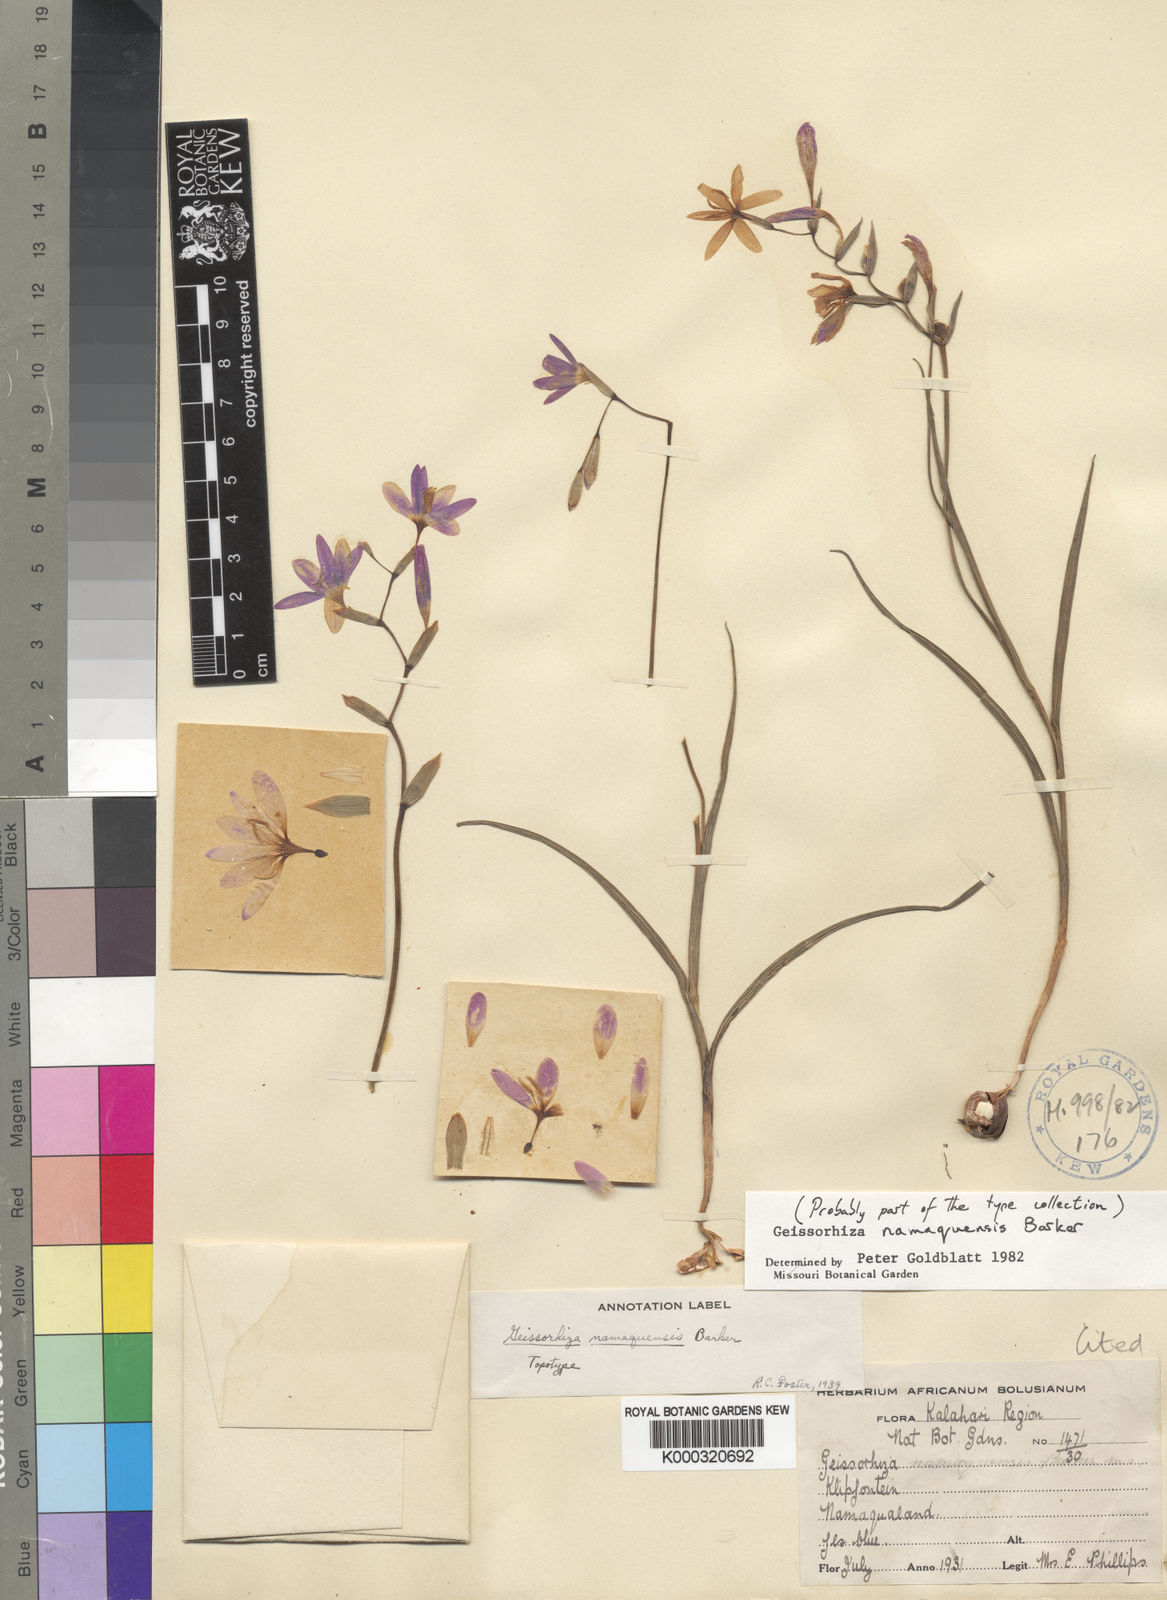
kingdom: Plantae
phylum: Tracheophyta
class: Liliopsida
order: Asparagales
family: Iridaceae
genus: Geissorhiza
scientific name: Geissorhiza namaquensis
